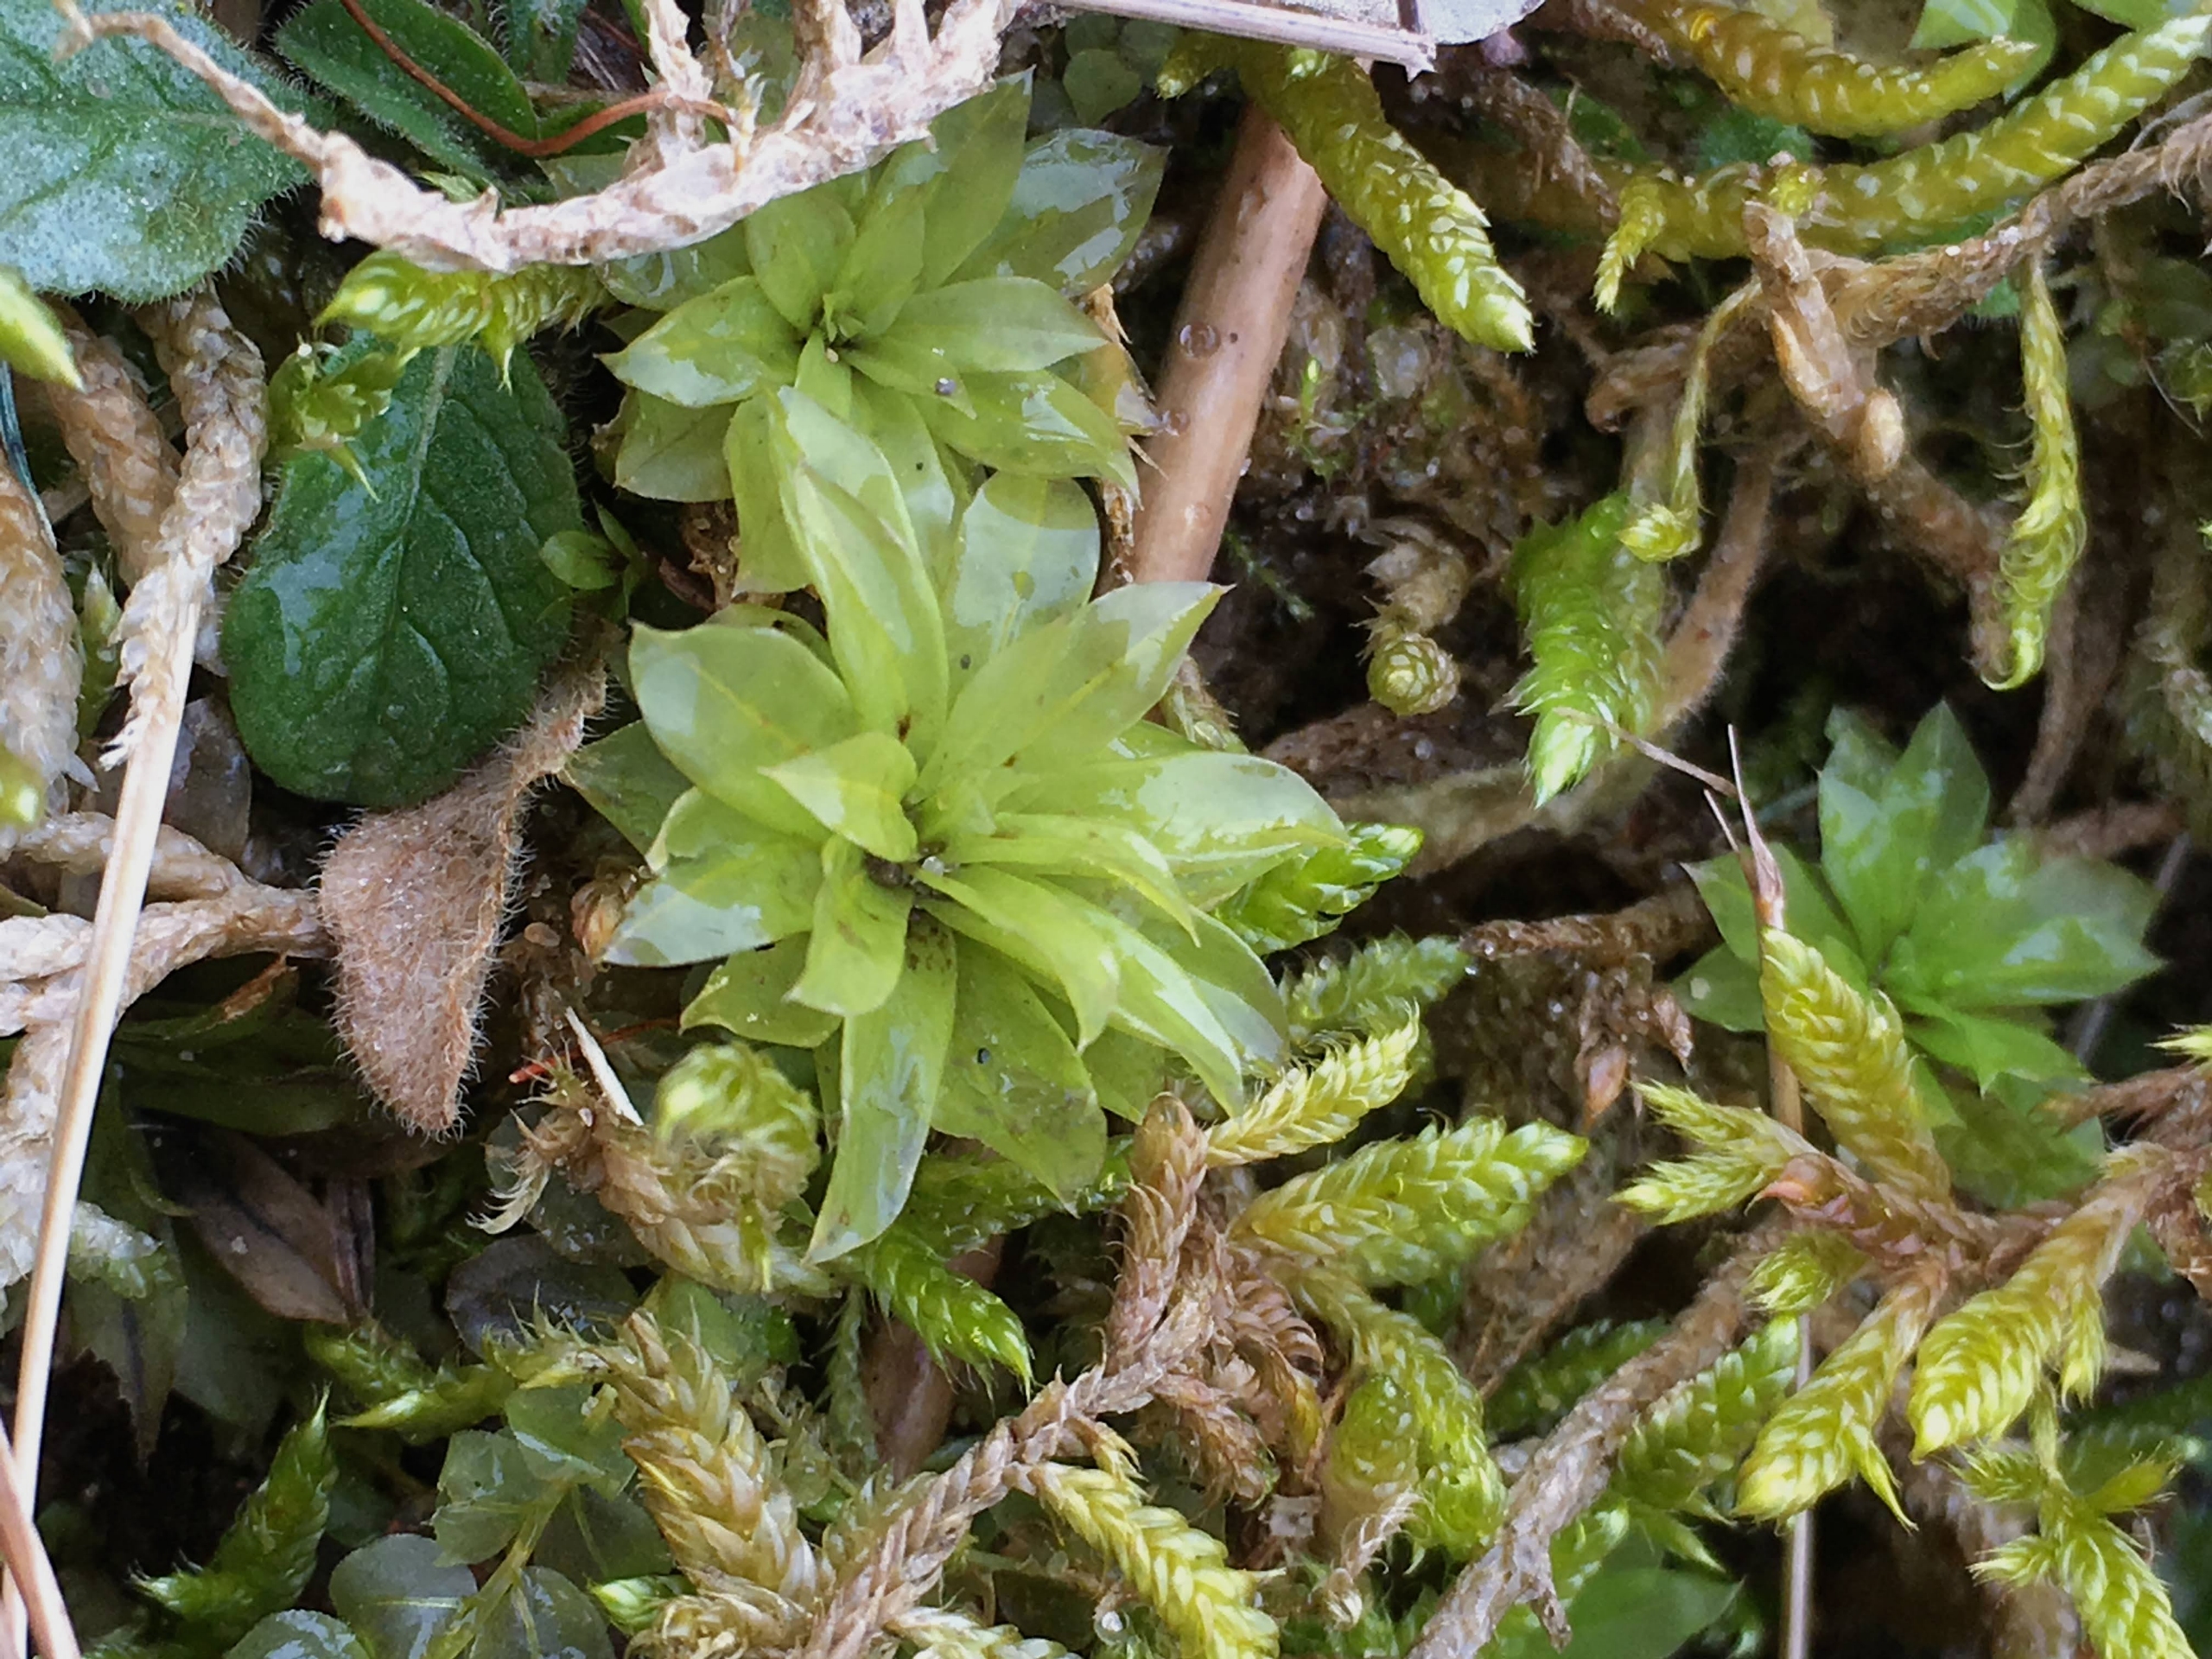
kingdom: Plantae
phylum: Bryophyta
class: Bryopsida
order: Bryales
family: Bryaceae
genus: Rhodobryum
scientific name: Rhodobryum roseum
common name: Stor rosetmos
